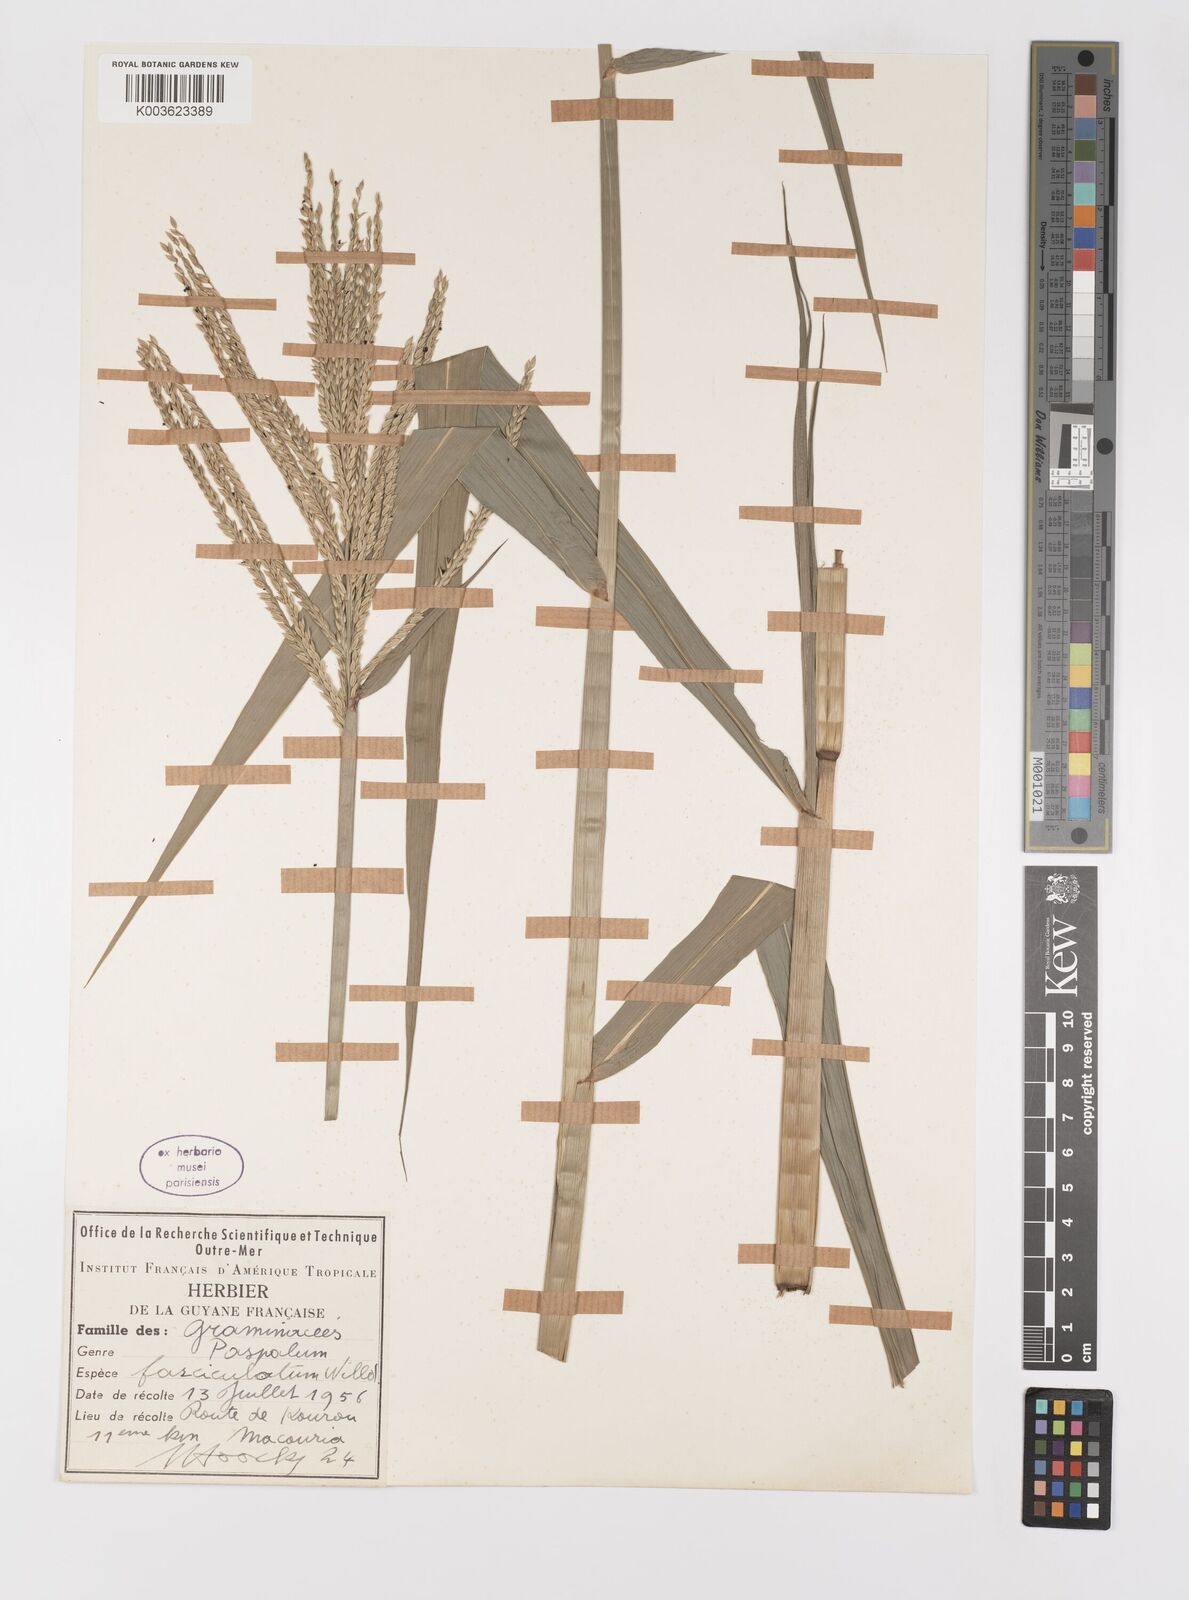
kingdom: Plantae
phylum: Tracheophyta
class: Liliopsida
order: Poales
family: Poaceae
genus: Paspalum
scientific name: Paspalum fasciculatum
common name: Bamboo grass
